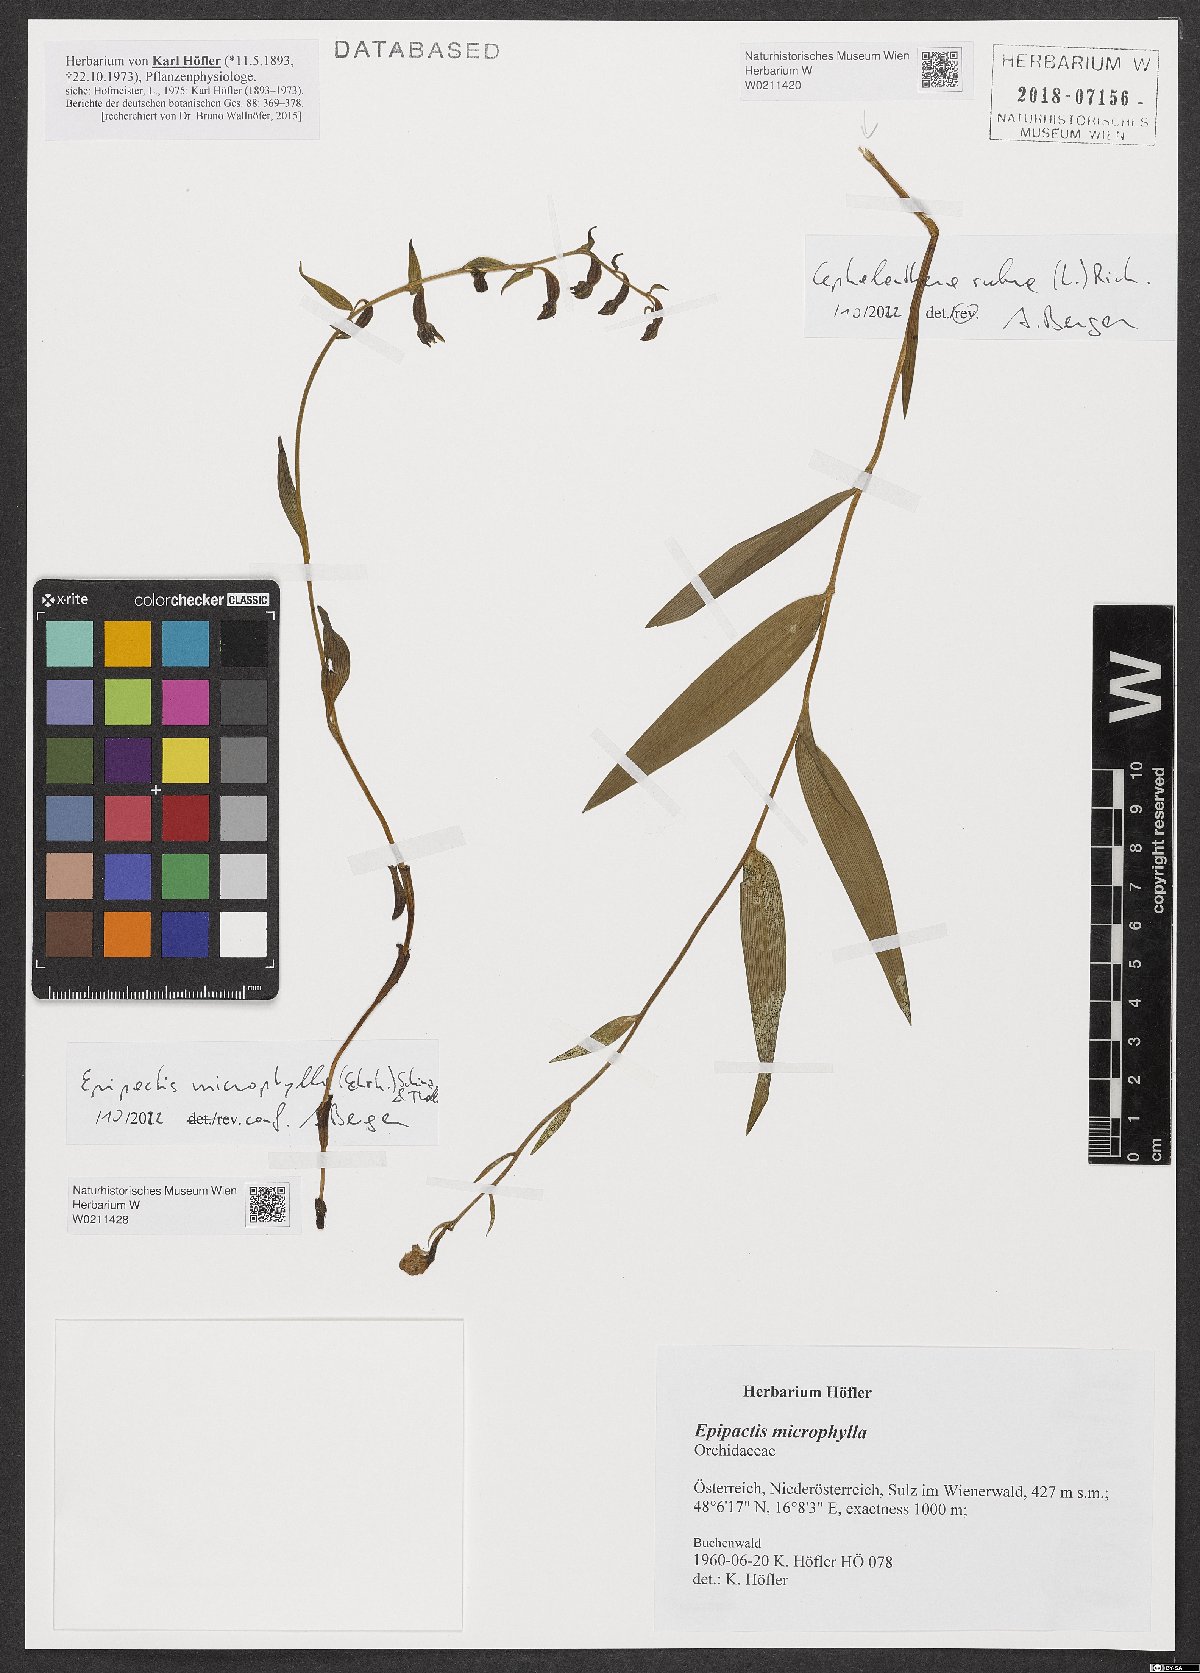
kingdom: Plantae
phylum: Tracheophyta
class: Liliopsida
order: Asparagales
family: Orchidaceae
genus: Cephalanthera
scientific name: Cephalanthera rubra
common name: Red helleborine
